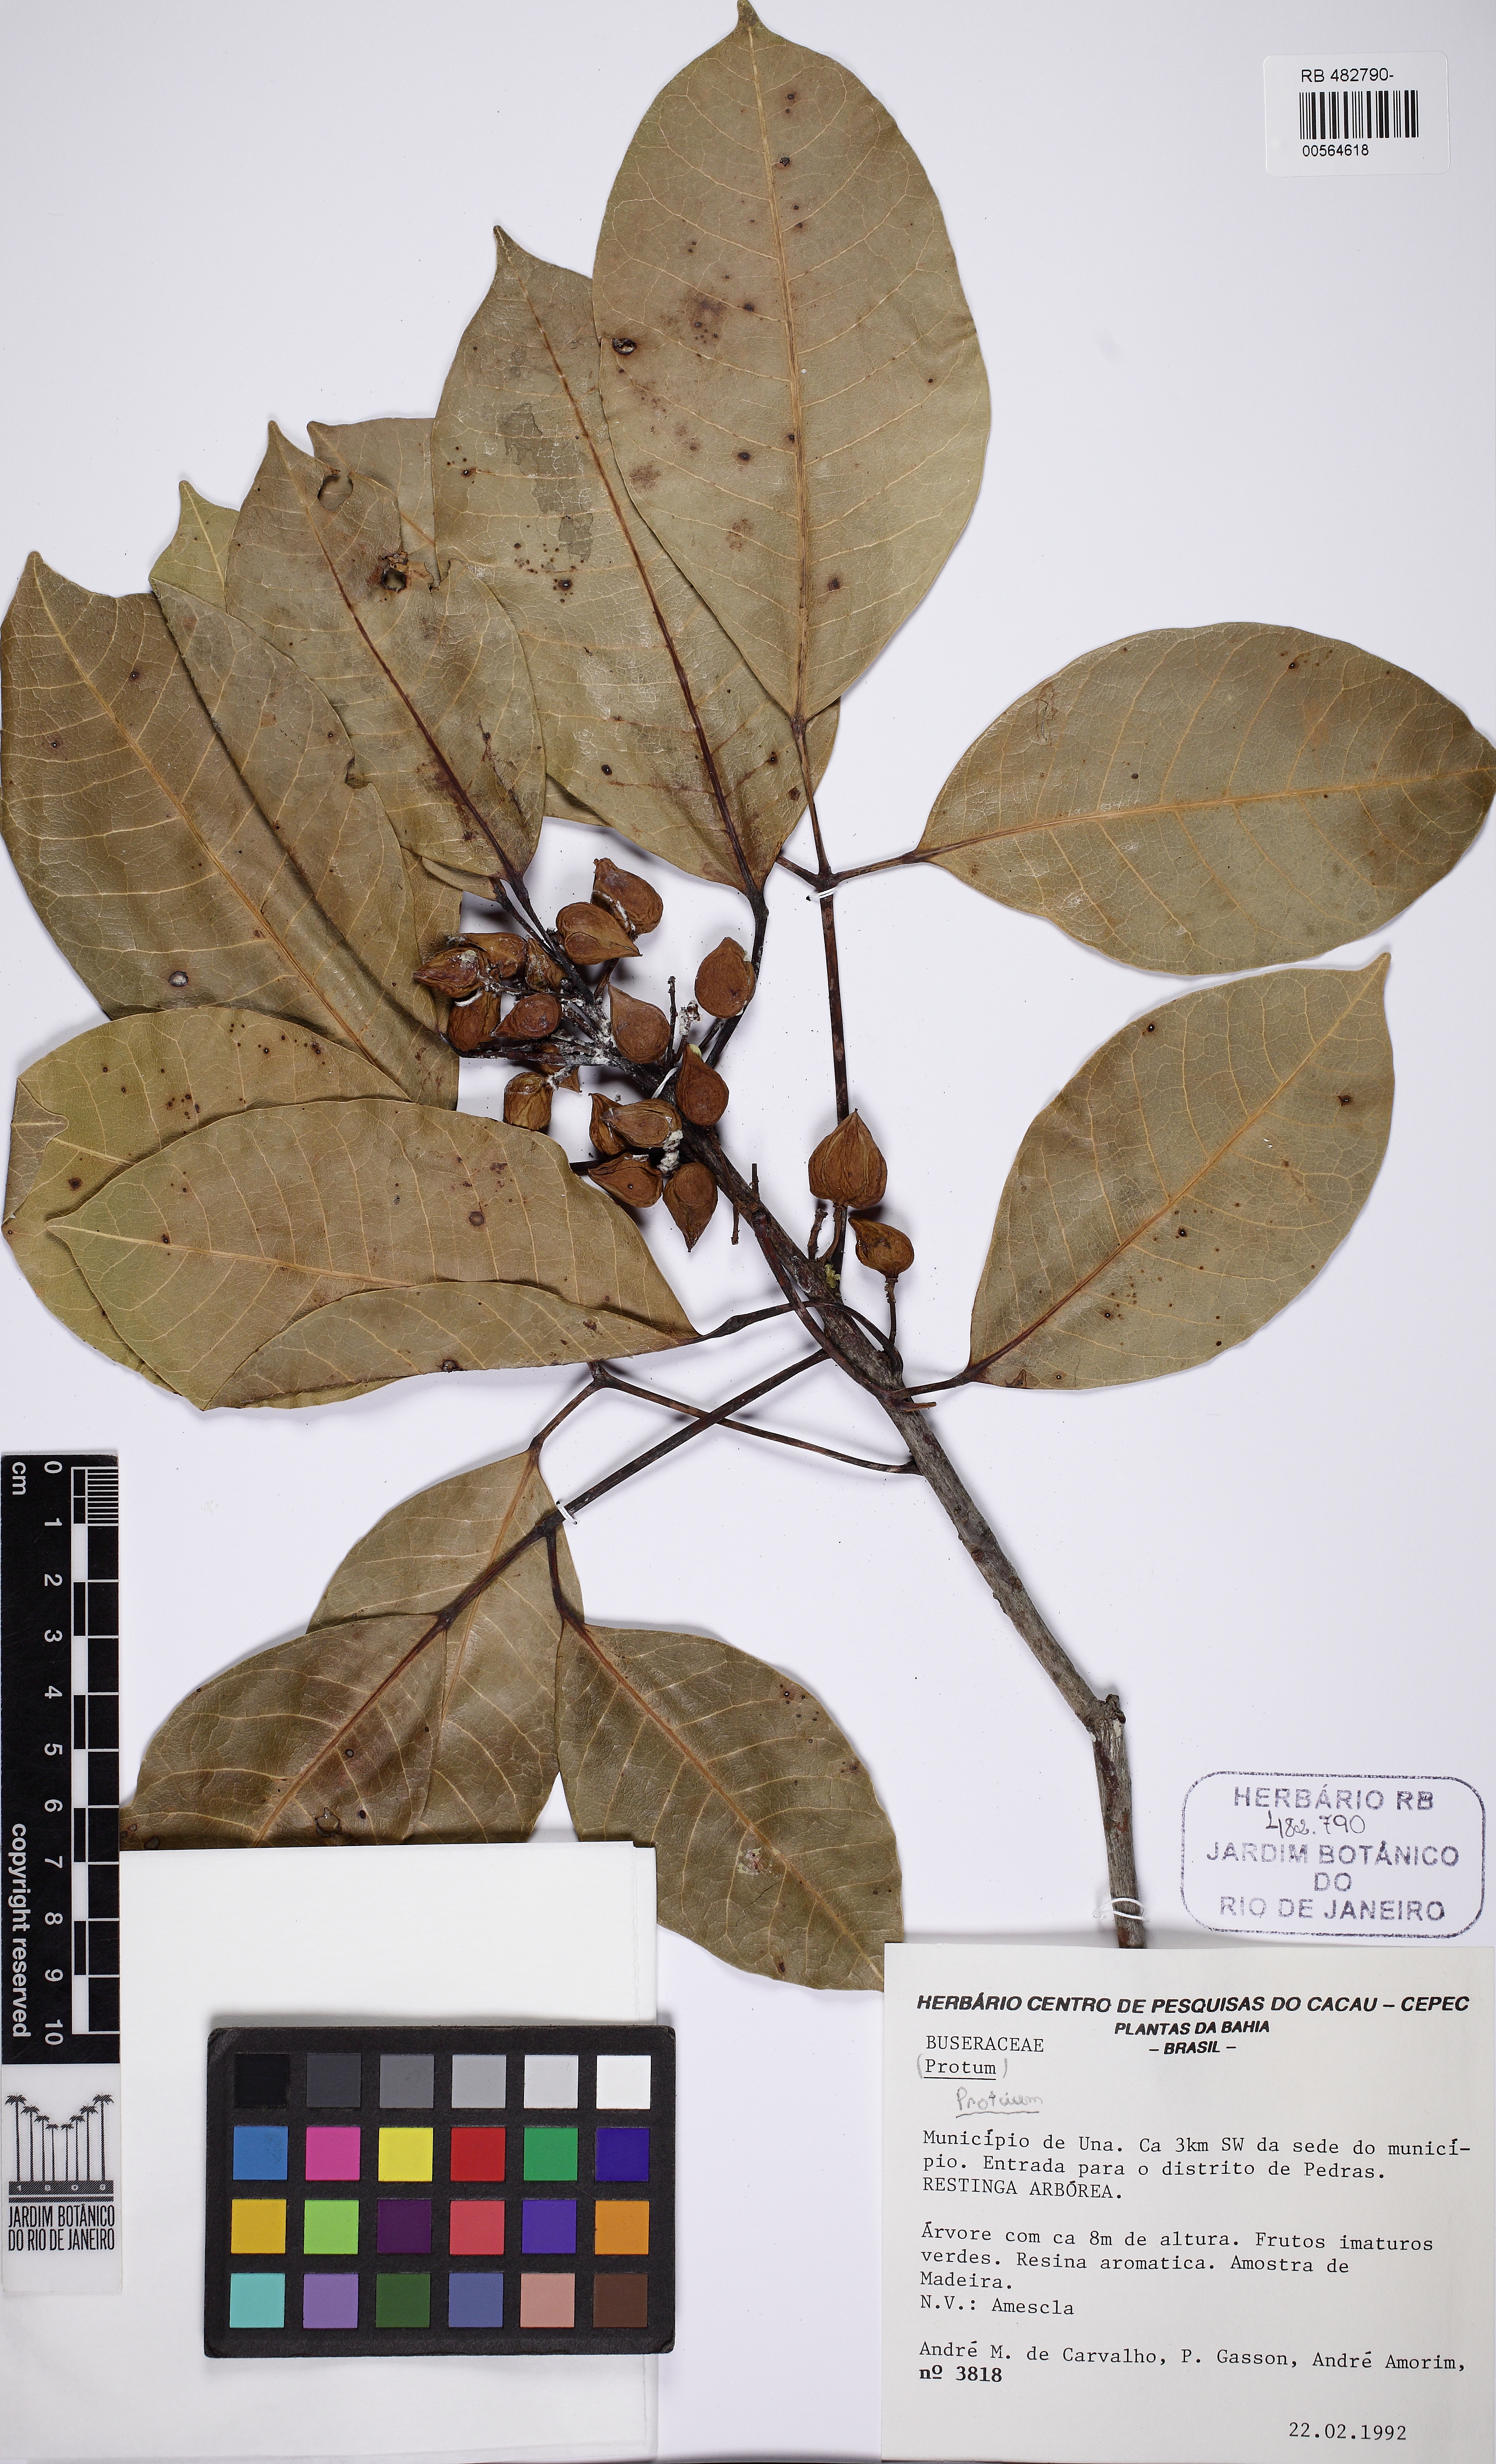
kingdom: Plantae
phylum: Tracheophyta
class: Magnoliopsida
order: Sapindales
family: Burseraceae
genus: Protium
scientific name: Protium icicariba
